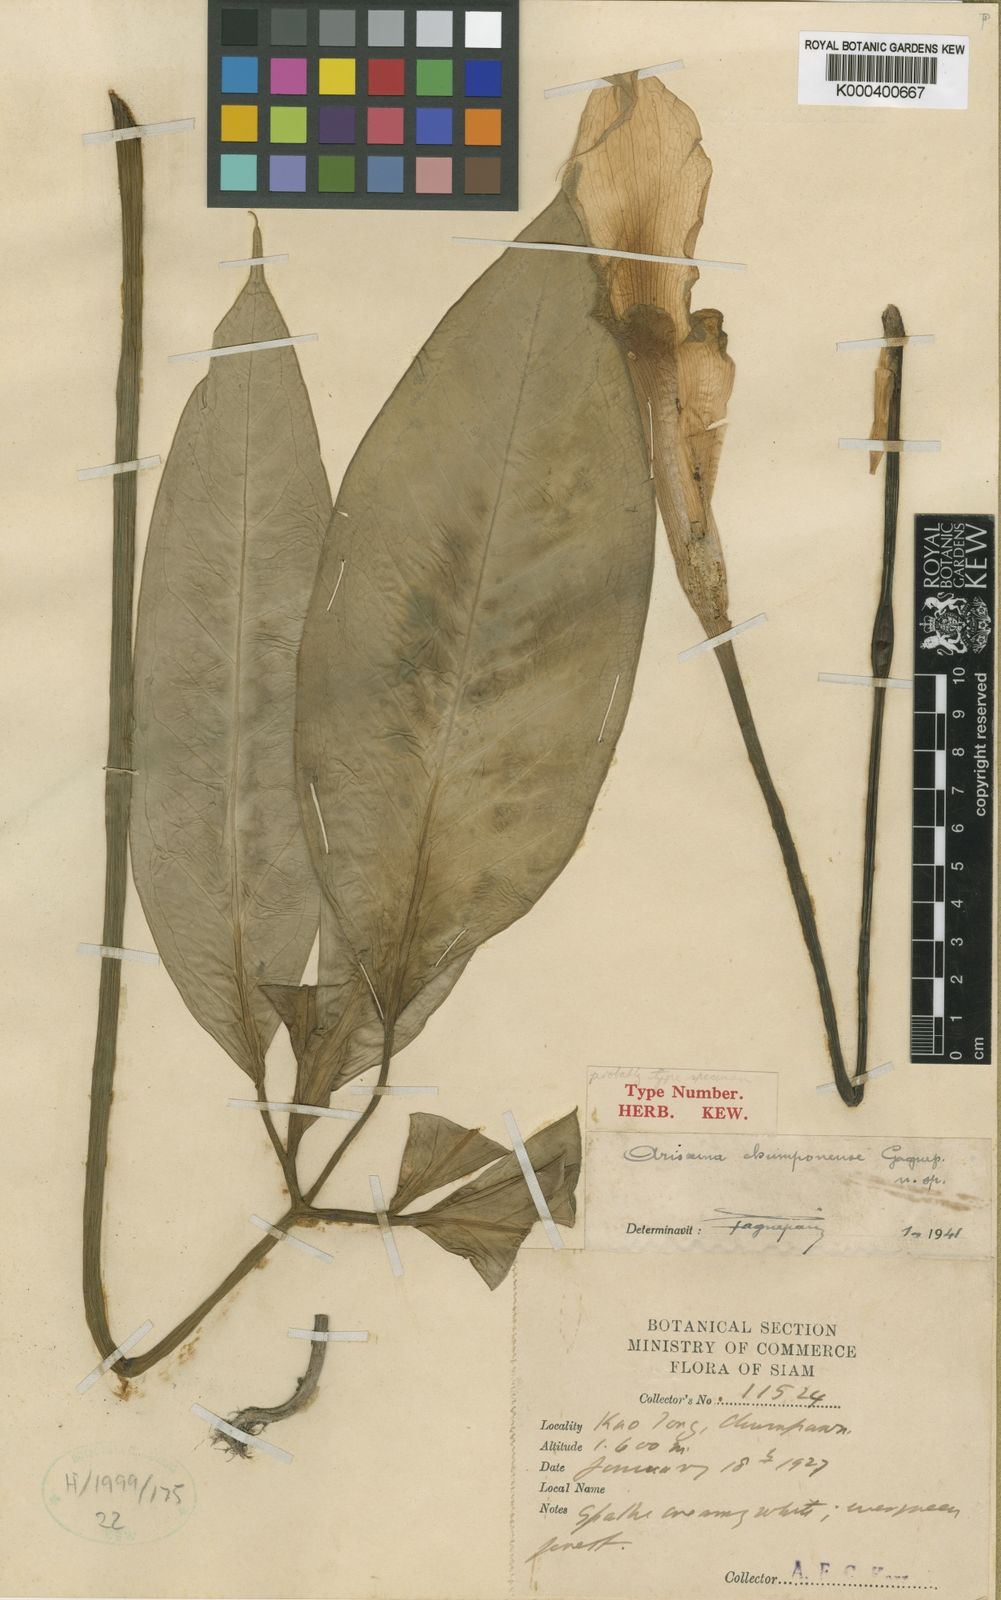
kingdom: Plantae
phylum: Tracheophyta
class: Liliopsida
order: Alismatales
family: Araceae
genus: Arisaema
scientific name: Arisaema chumponense
